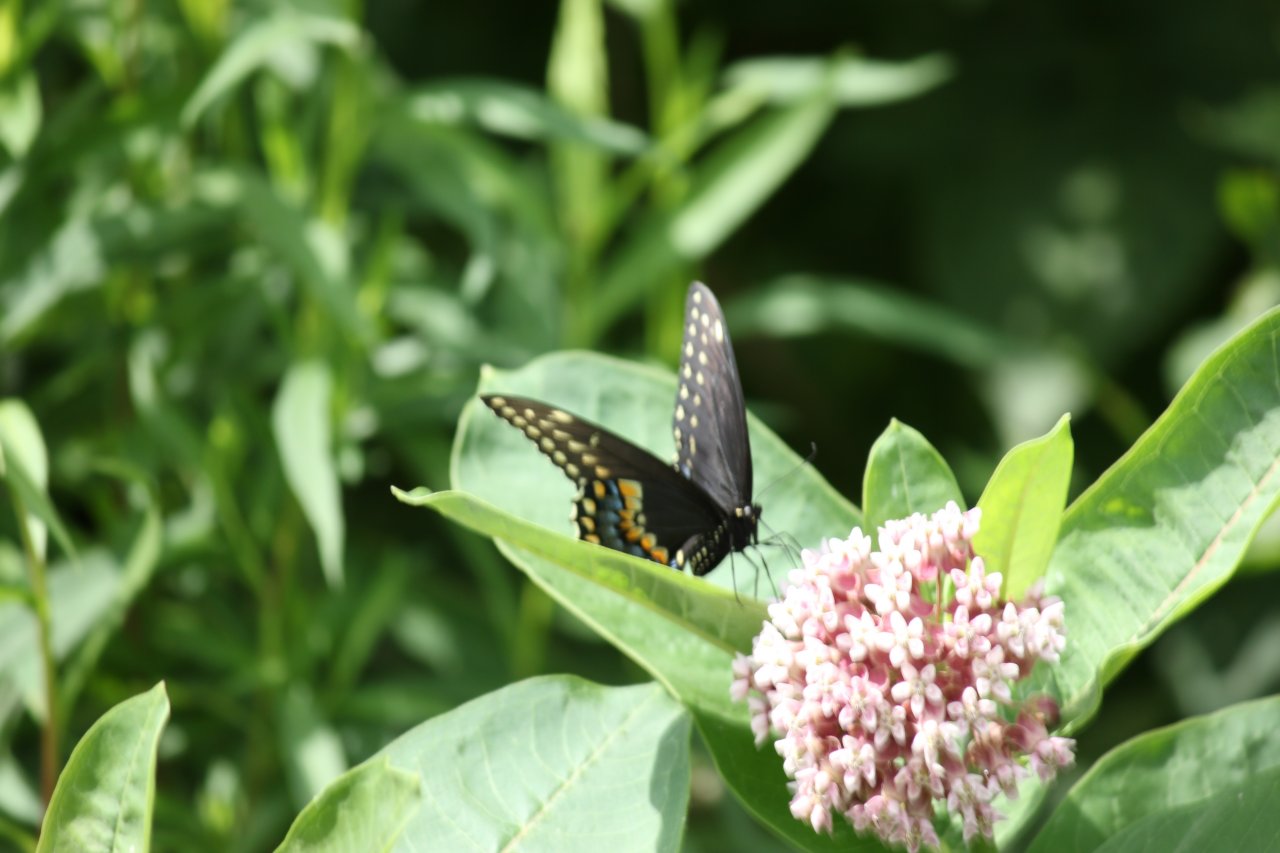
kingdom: Animalia
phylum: Arthropoda
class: Insecta
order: Lepidoptera
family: Papilionidae
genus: Papilio
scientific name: Papilio polyxenes
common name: Black Swallowtail
